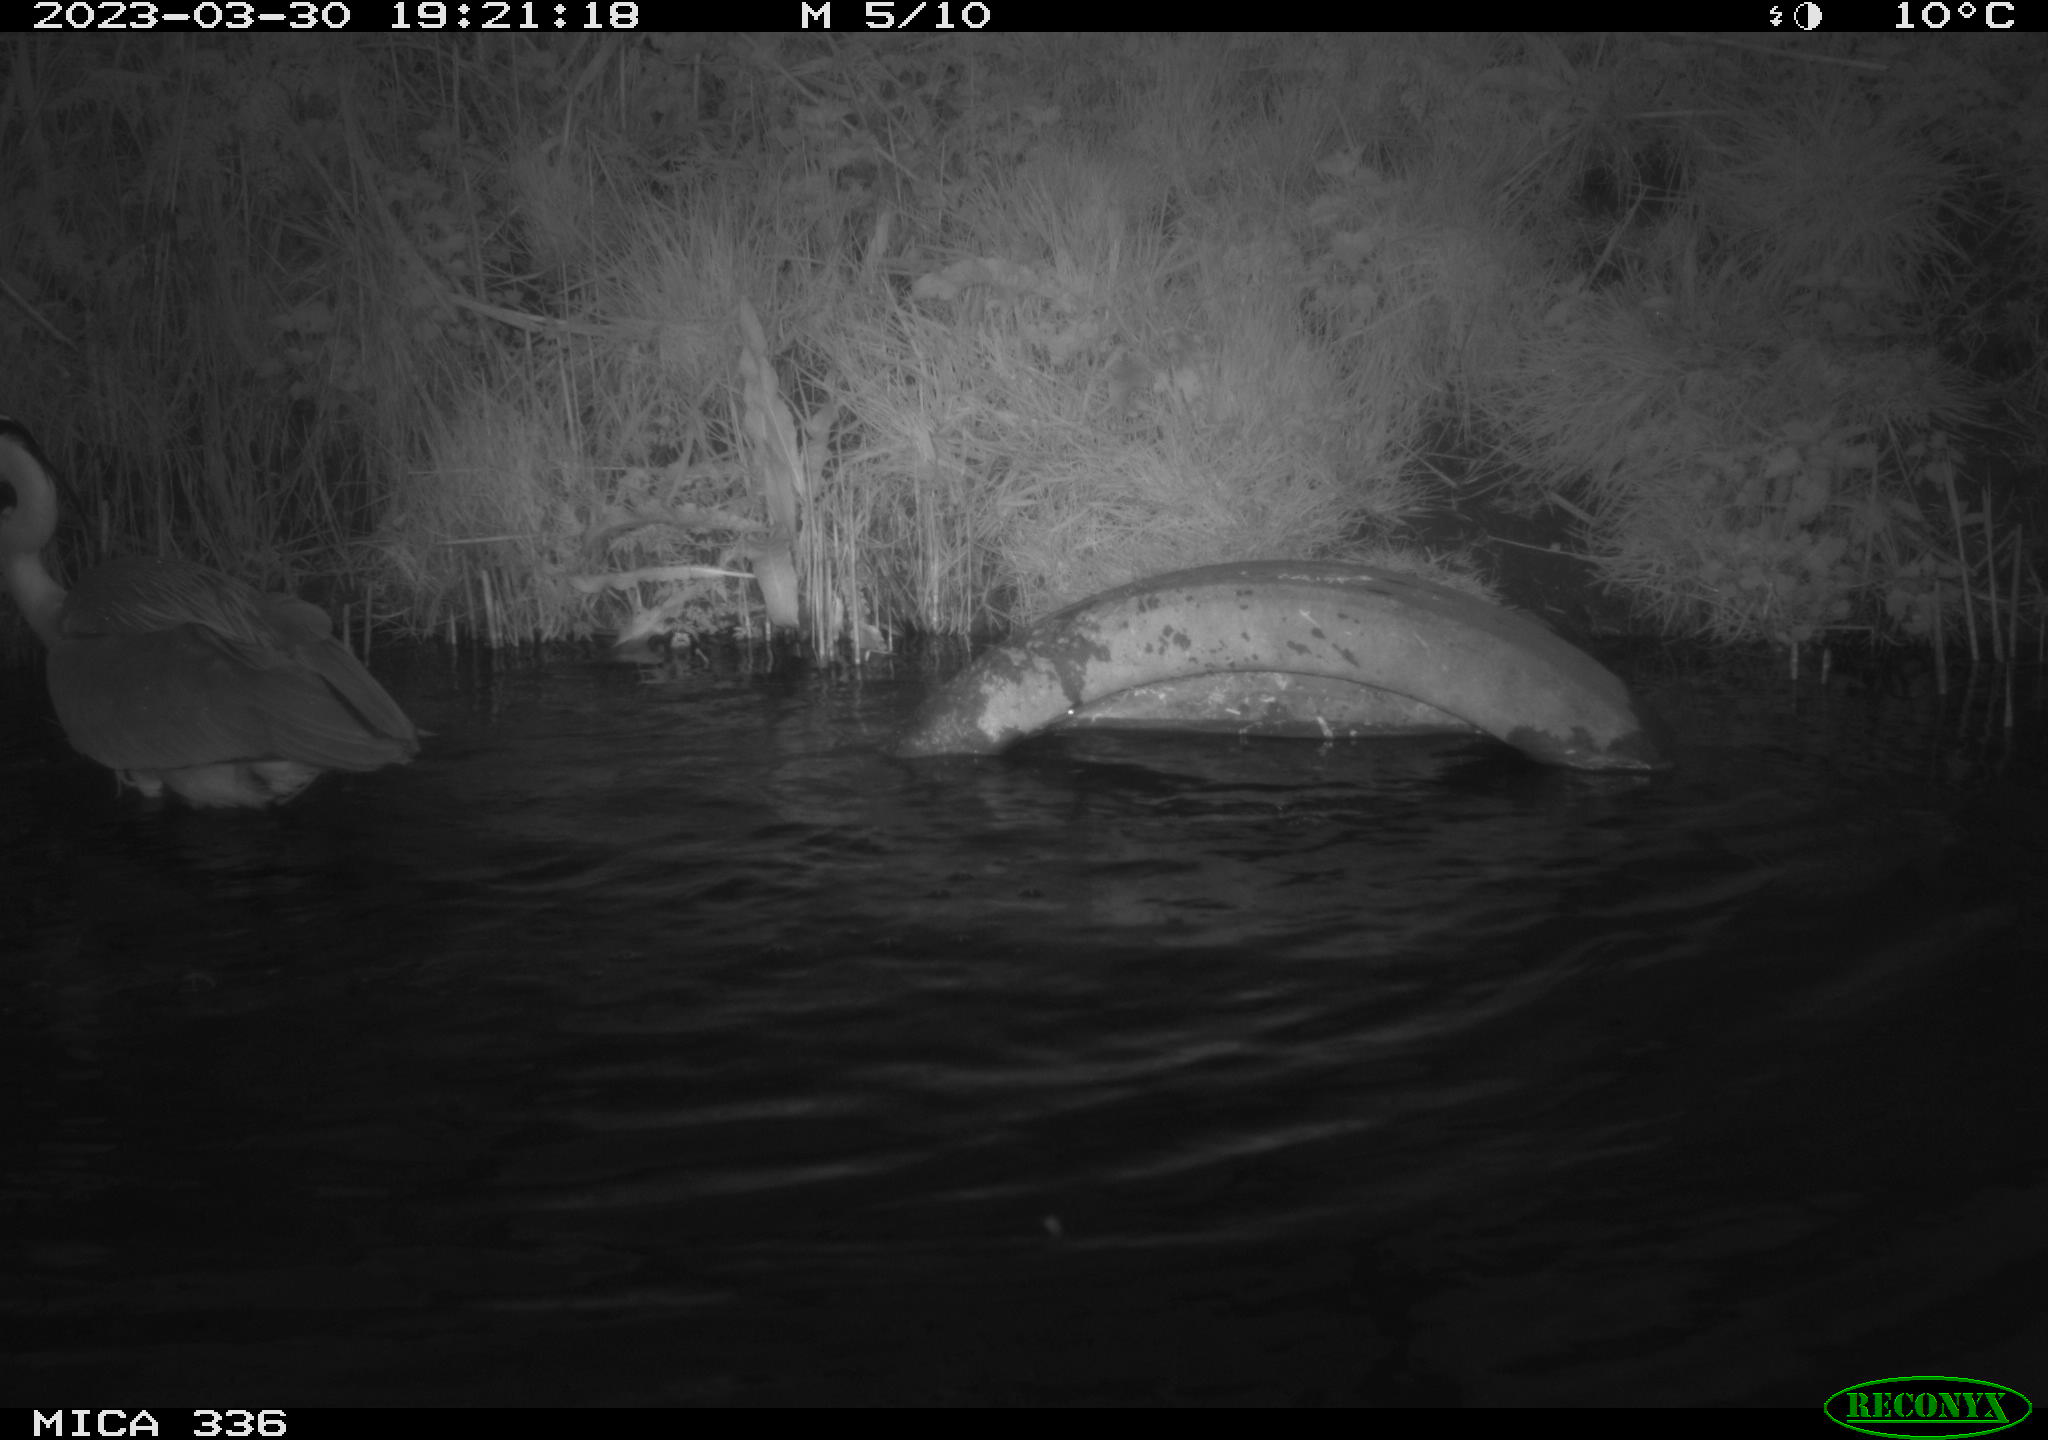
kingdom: Animalia
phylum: Chordata
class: Aves
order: Pelecaniformes
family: Ardeidae
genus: Ardea
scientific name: Ardea cinerea
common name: Grey heron
